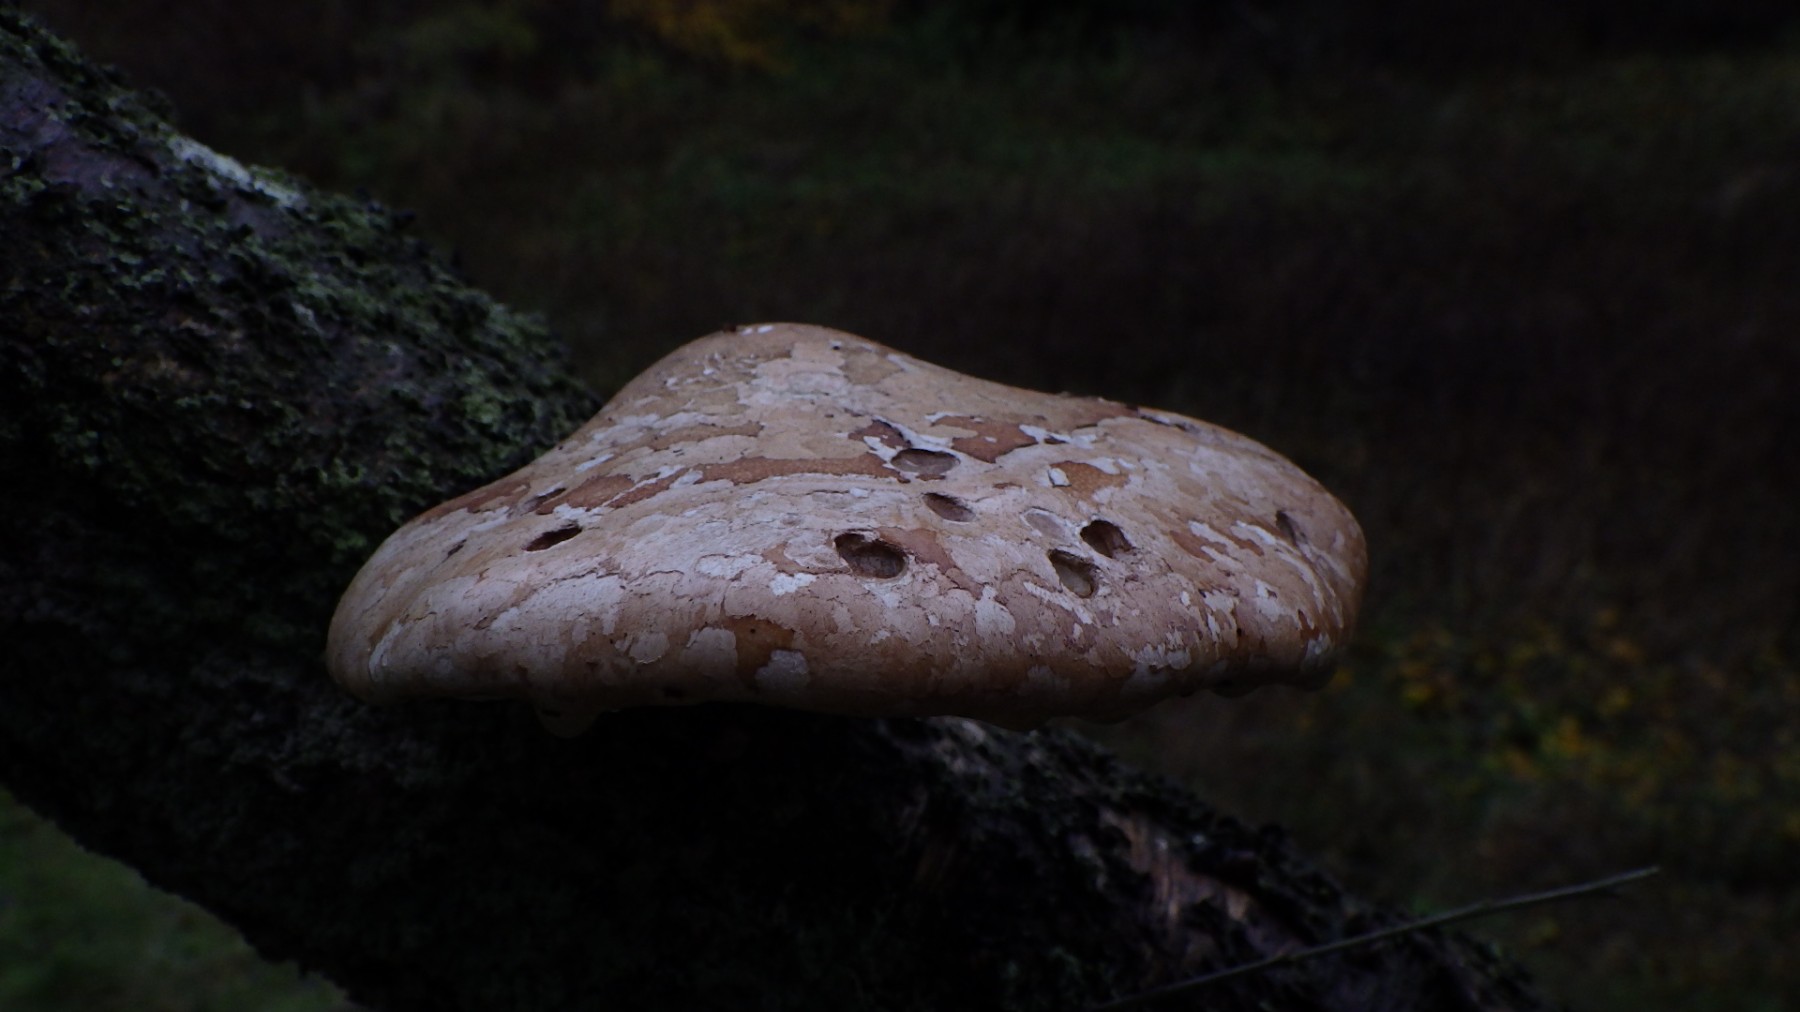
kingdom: Fungi
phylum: Basidiomycota
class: Agaricomycetes
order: Polyporales
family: Fomitopsidaceae
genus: Fomitopsis
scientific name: Fomitopsis betulina
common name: birkeporesvamp
